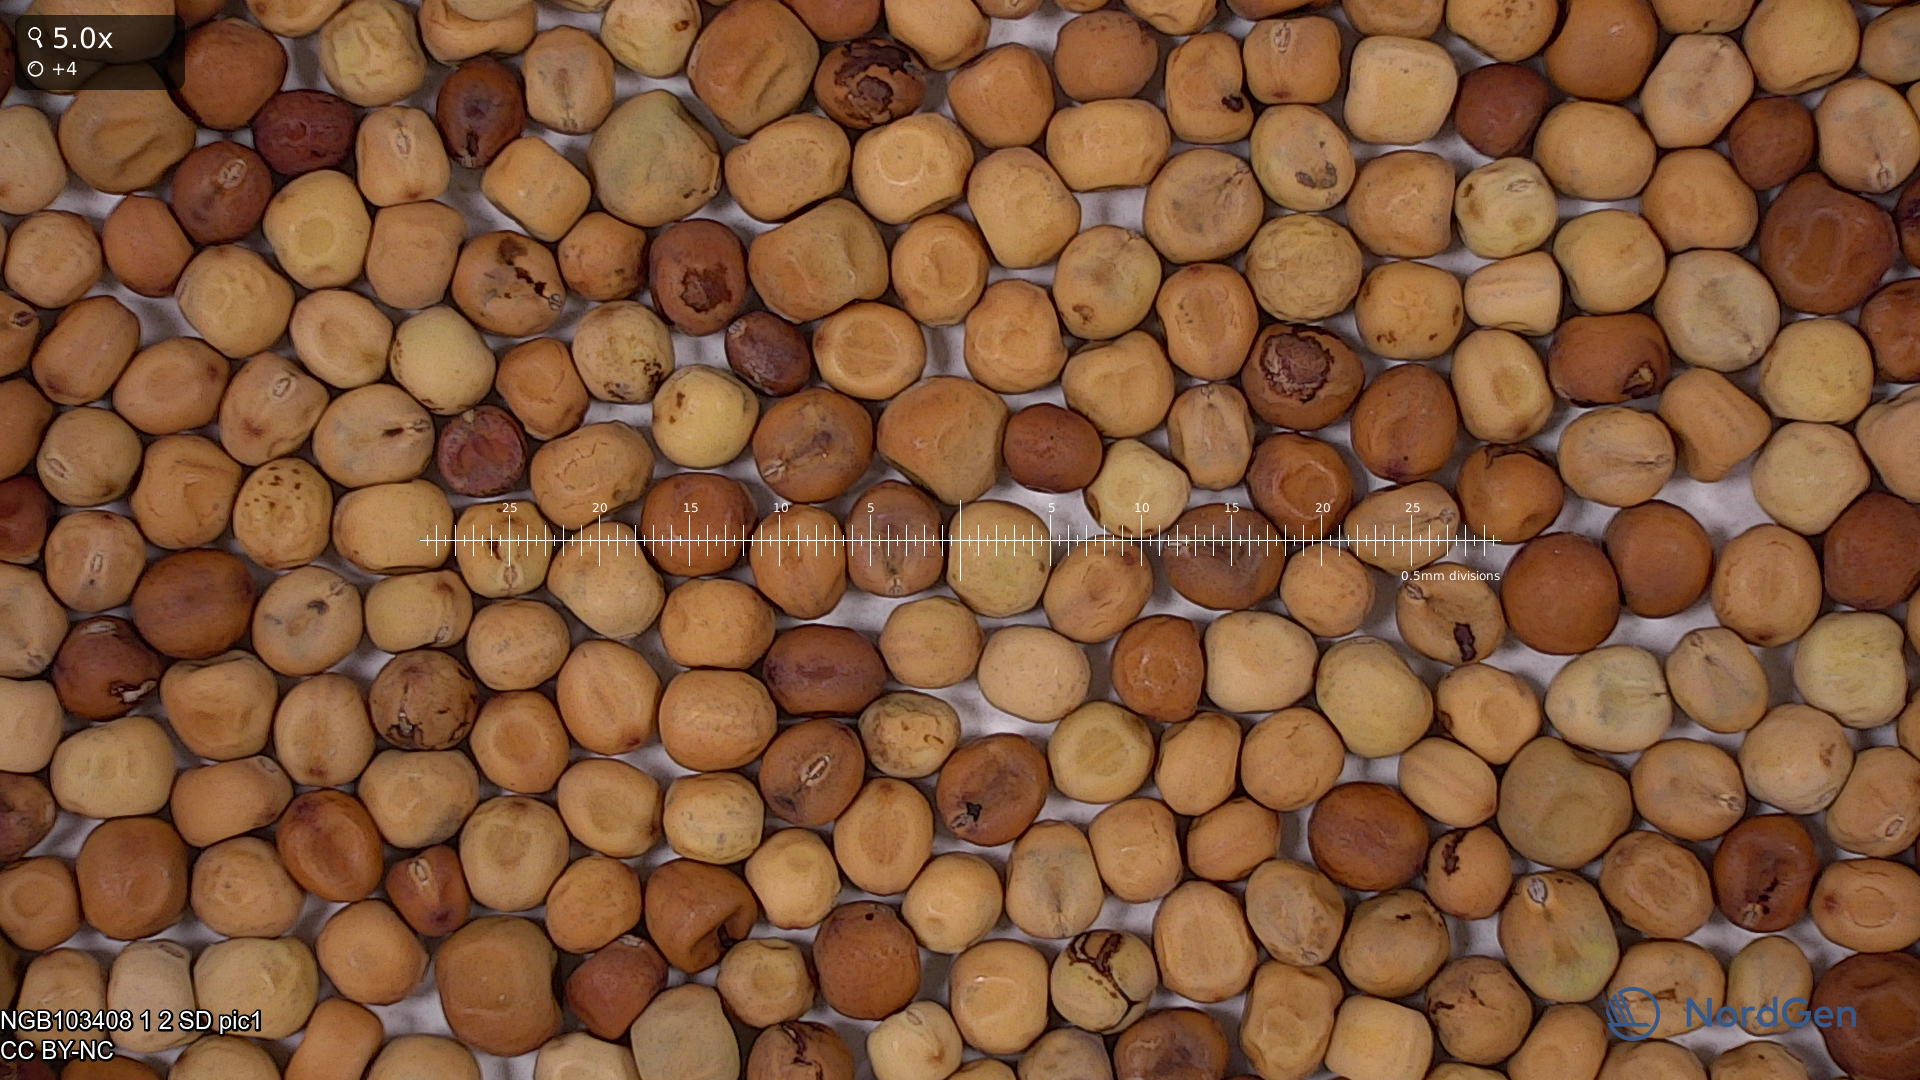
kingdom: Plantae
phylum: Tracheophyta
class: Magnoliopsida
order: Fabales
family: Fabaceae
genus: Lathyrus
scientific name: Lathyrus oleraceus
